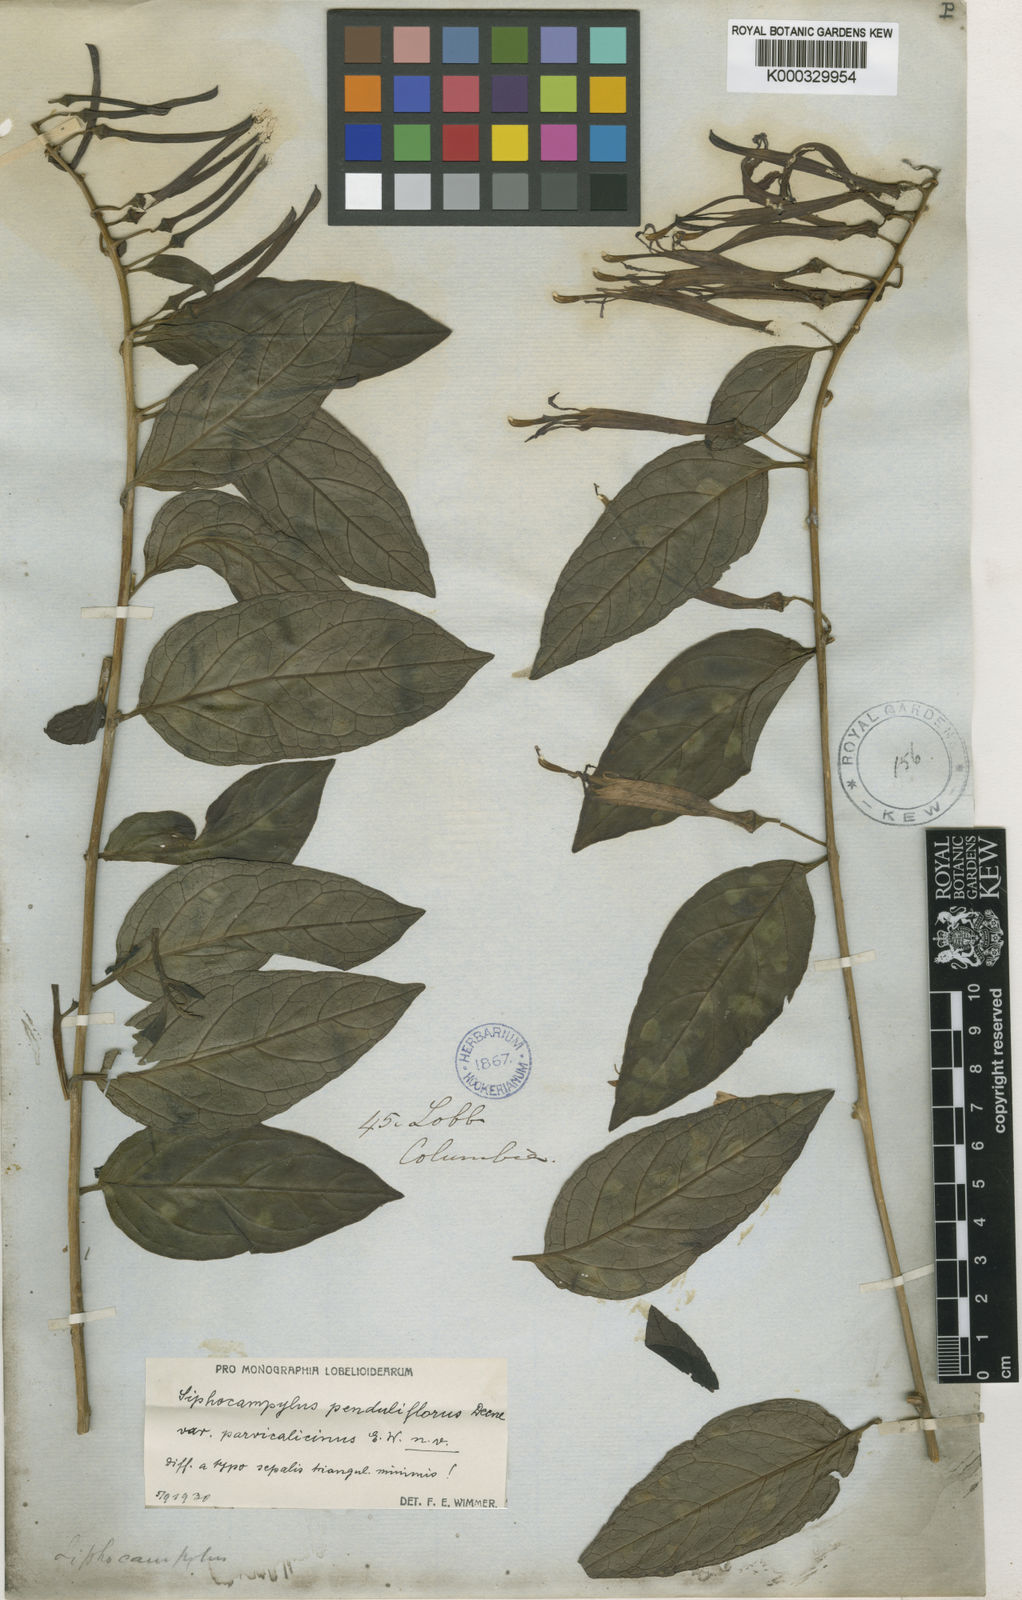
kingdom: Plantae
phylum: Tracheophyta
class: Magnoliopsida
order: Asterales
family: Campanulaceae
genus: Siphocampylus
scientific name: Siphocampylus scandens
